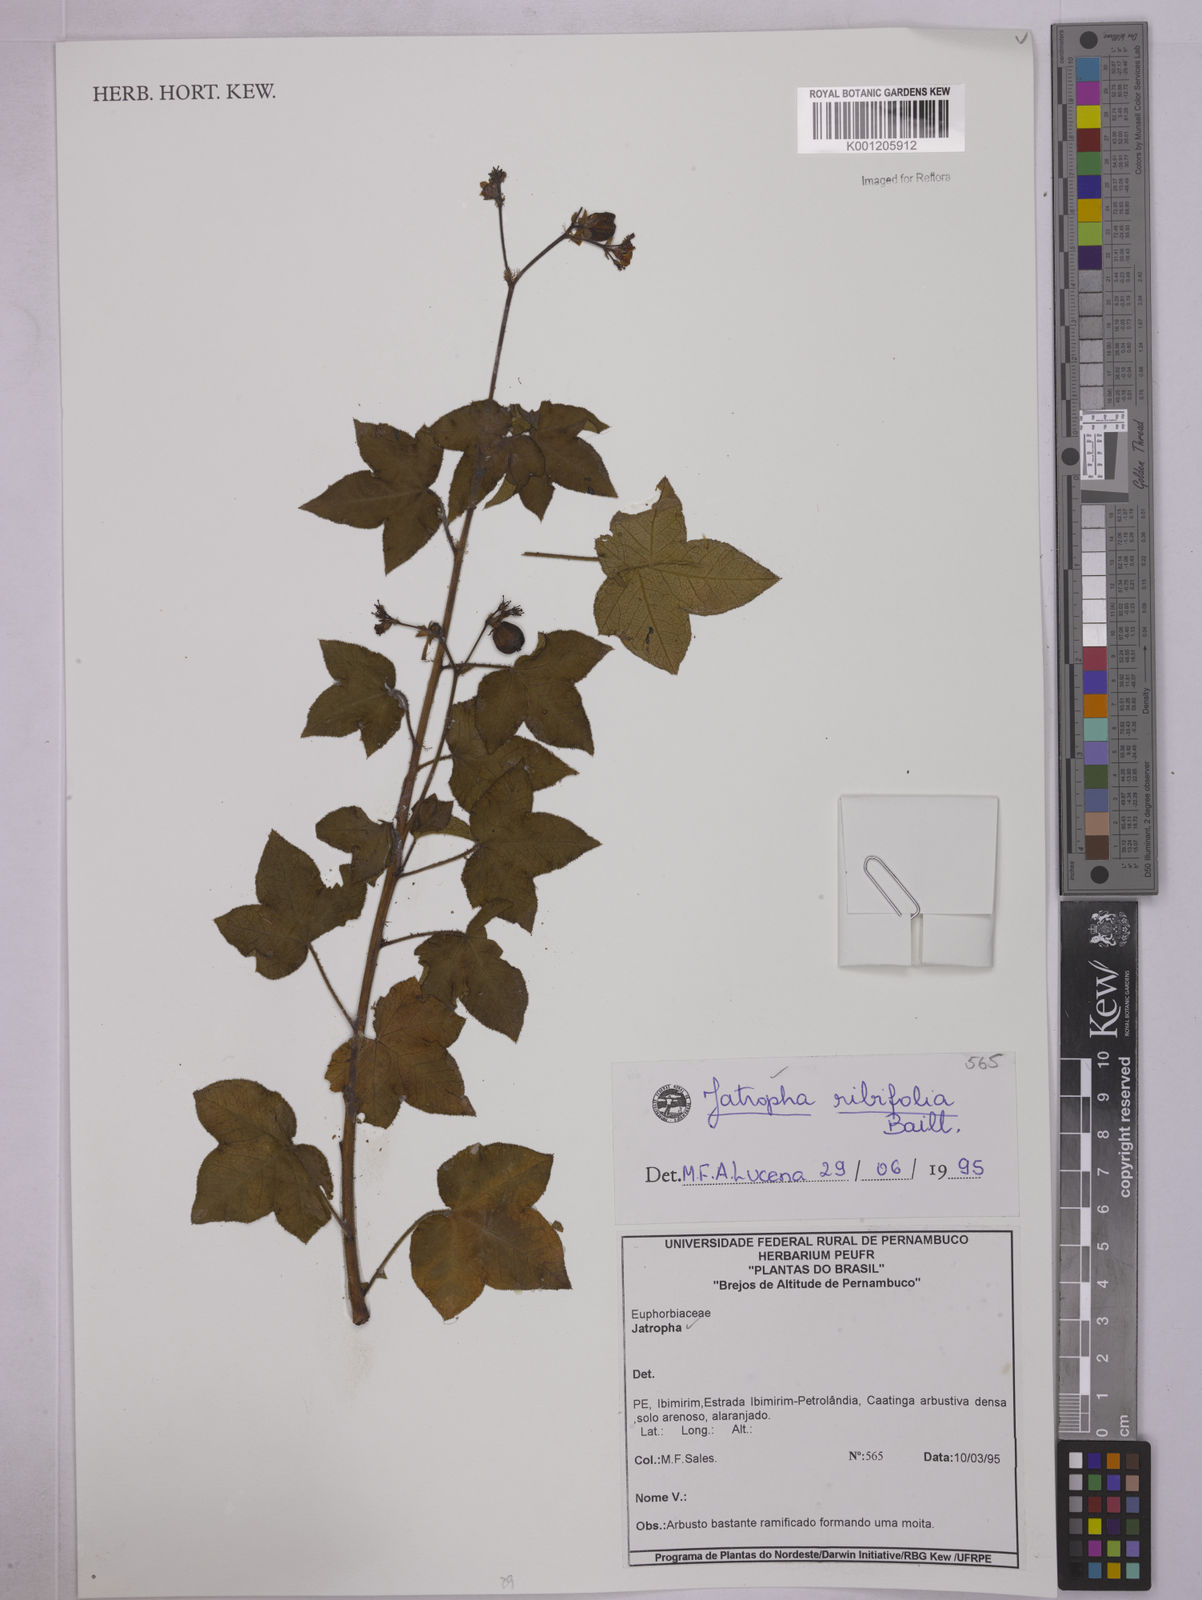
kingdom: Plantae
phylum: Tracheophyta
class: Magnoliopsida
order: Malpighiales
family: Euphorbiaceae
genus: Jatropha
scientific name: Jatropha ribifolia
